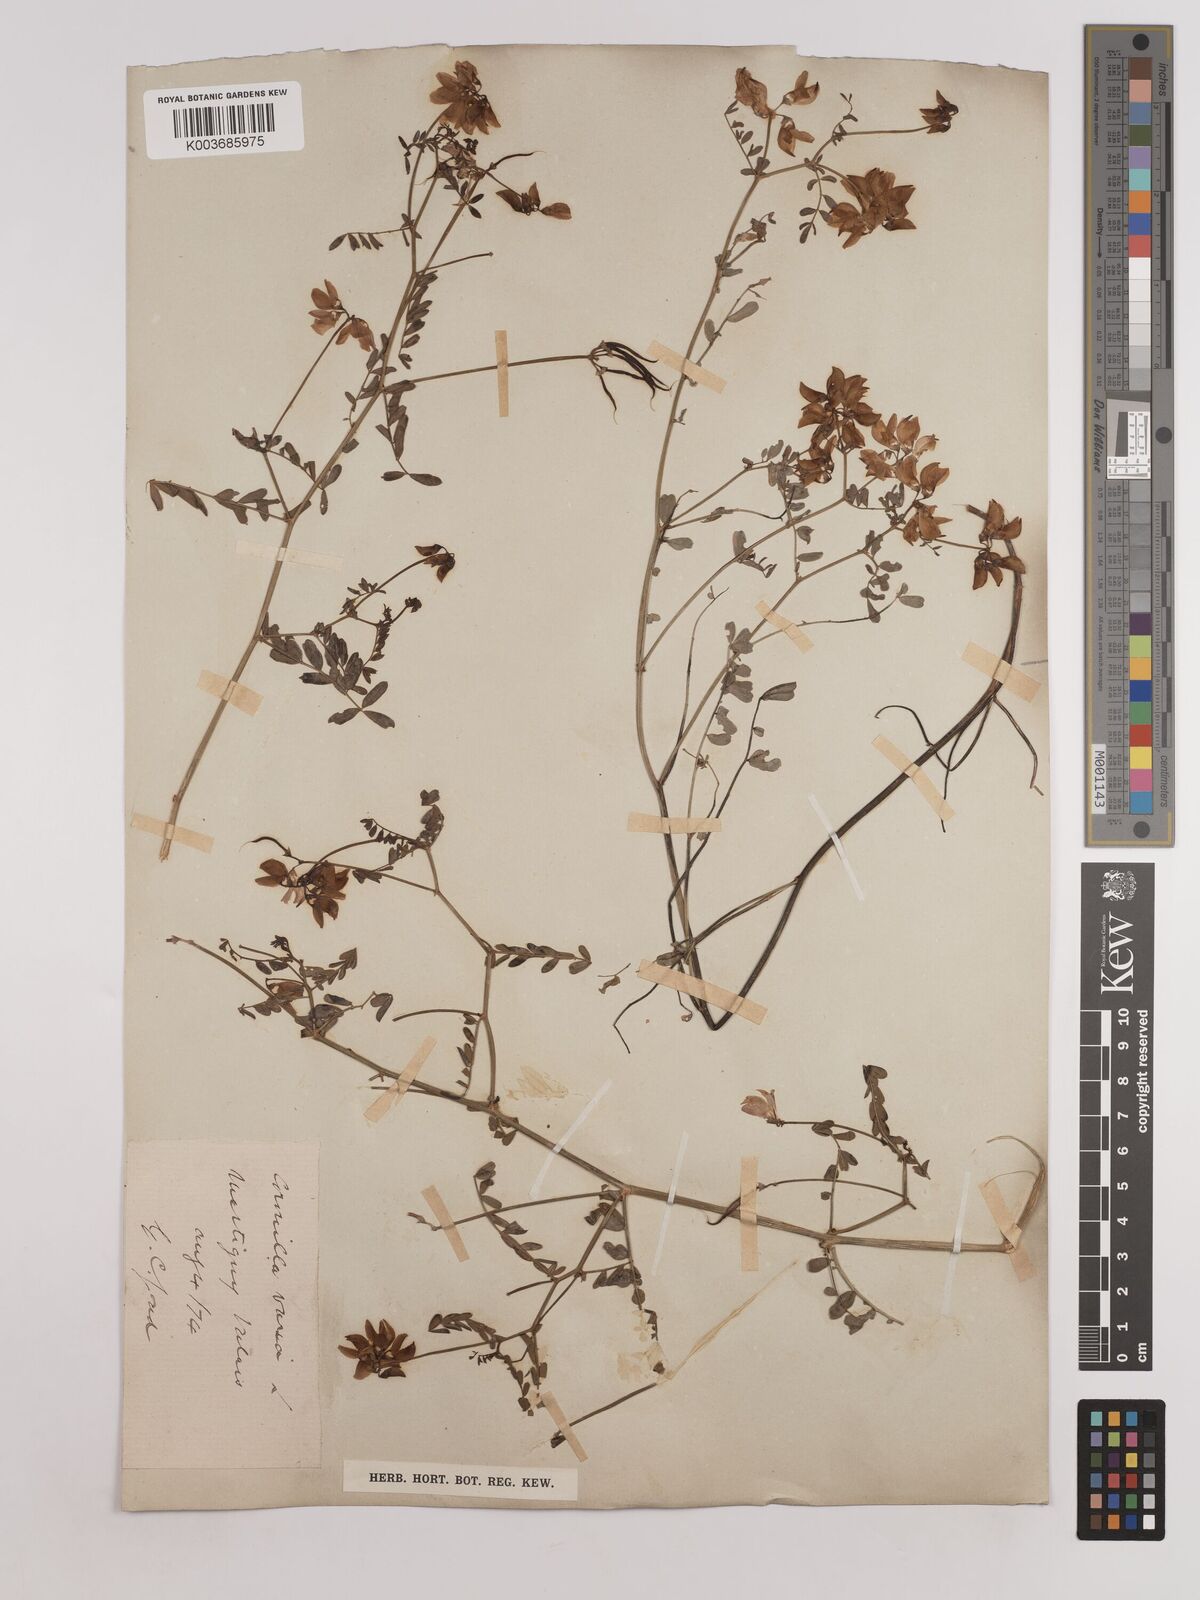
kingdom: Plantae
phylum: Tracheophyta
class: Magnoliopsida
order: Fabales
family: Fabaceae
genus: Coronilla
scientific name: Coronilla varia
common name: Crownvetch
